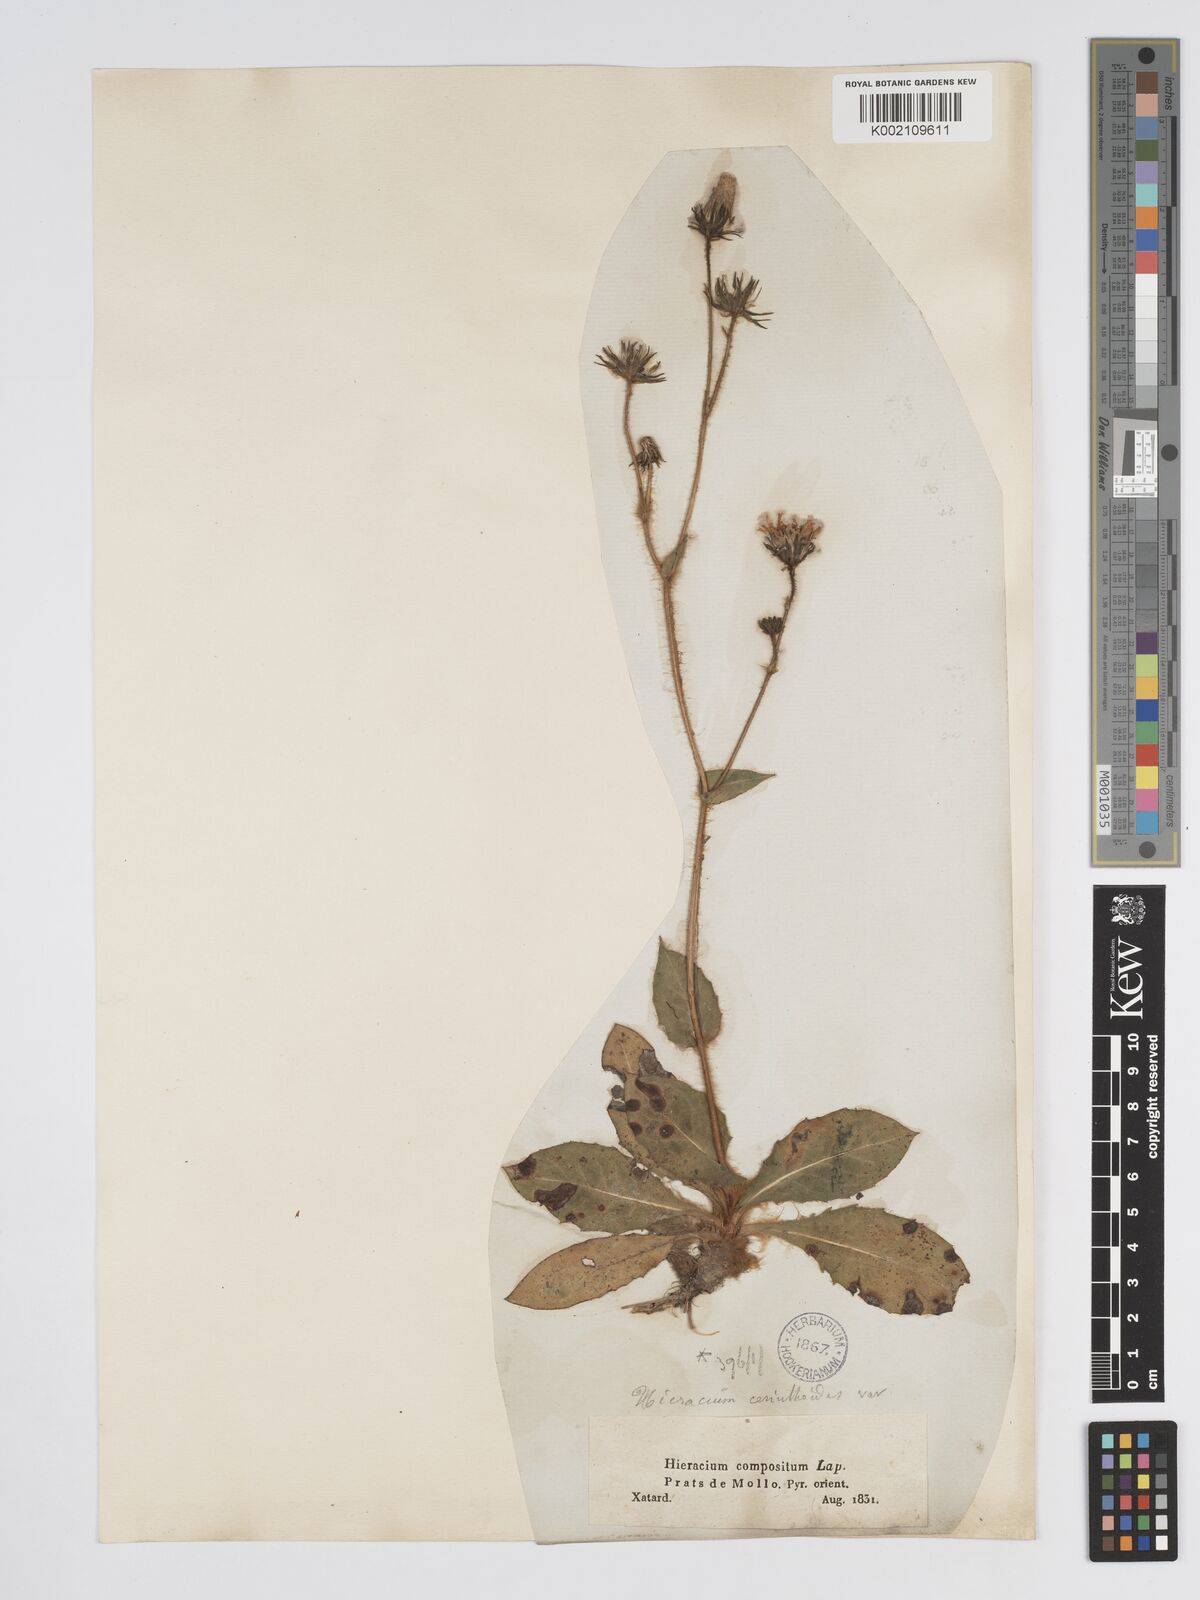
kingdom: Plantae
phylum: Tracheophyta
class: Magnoliopsida
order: Asterales
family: Asteraceae
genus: Hieracium
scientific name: Hieracium compositum
